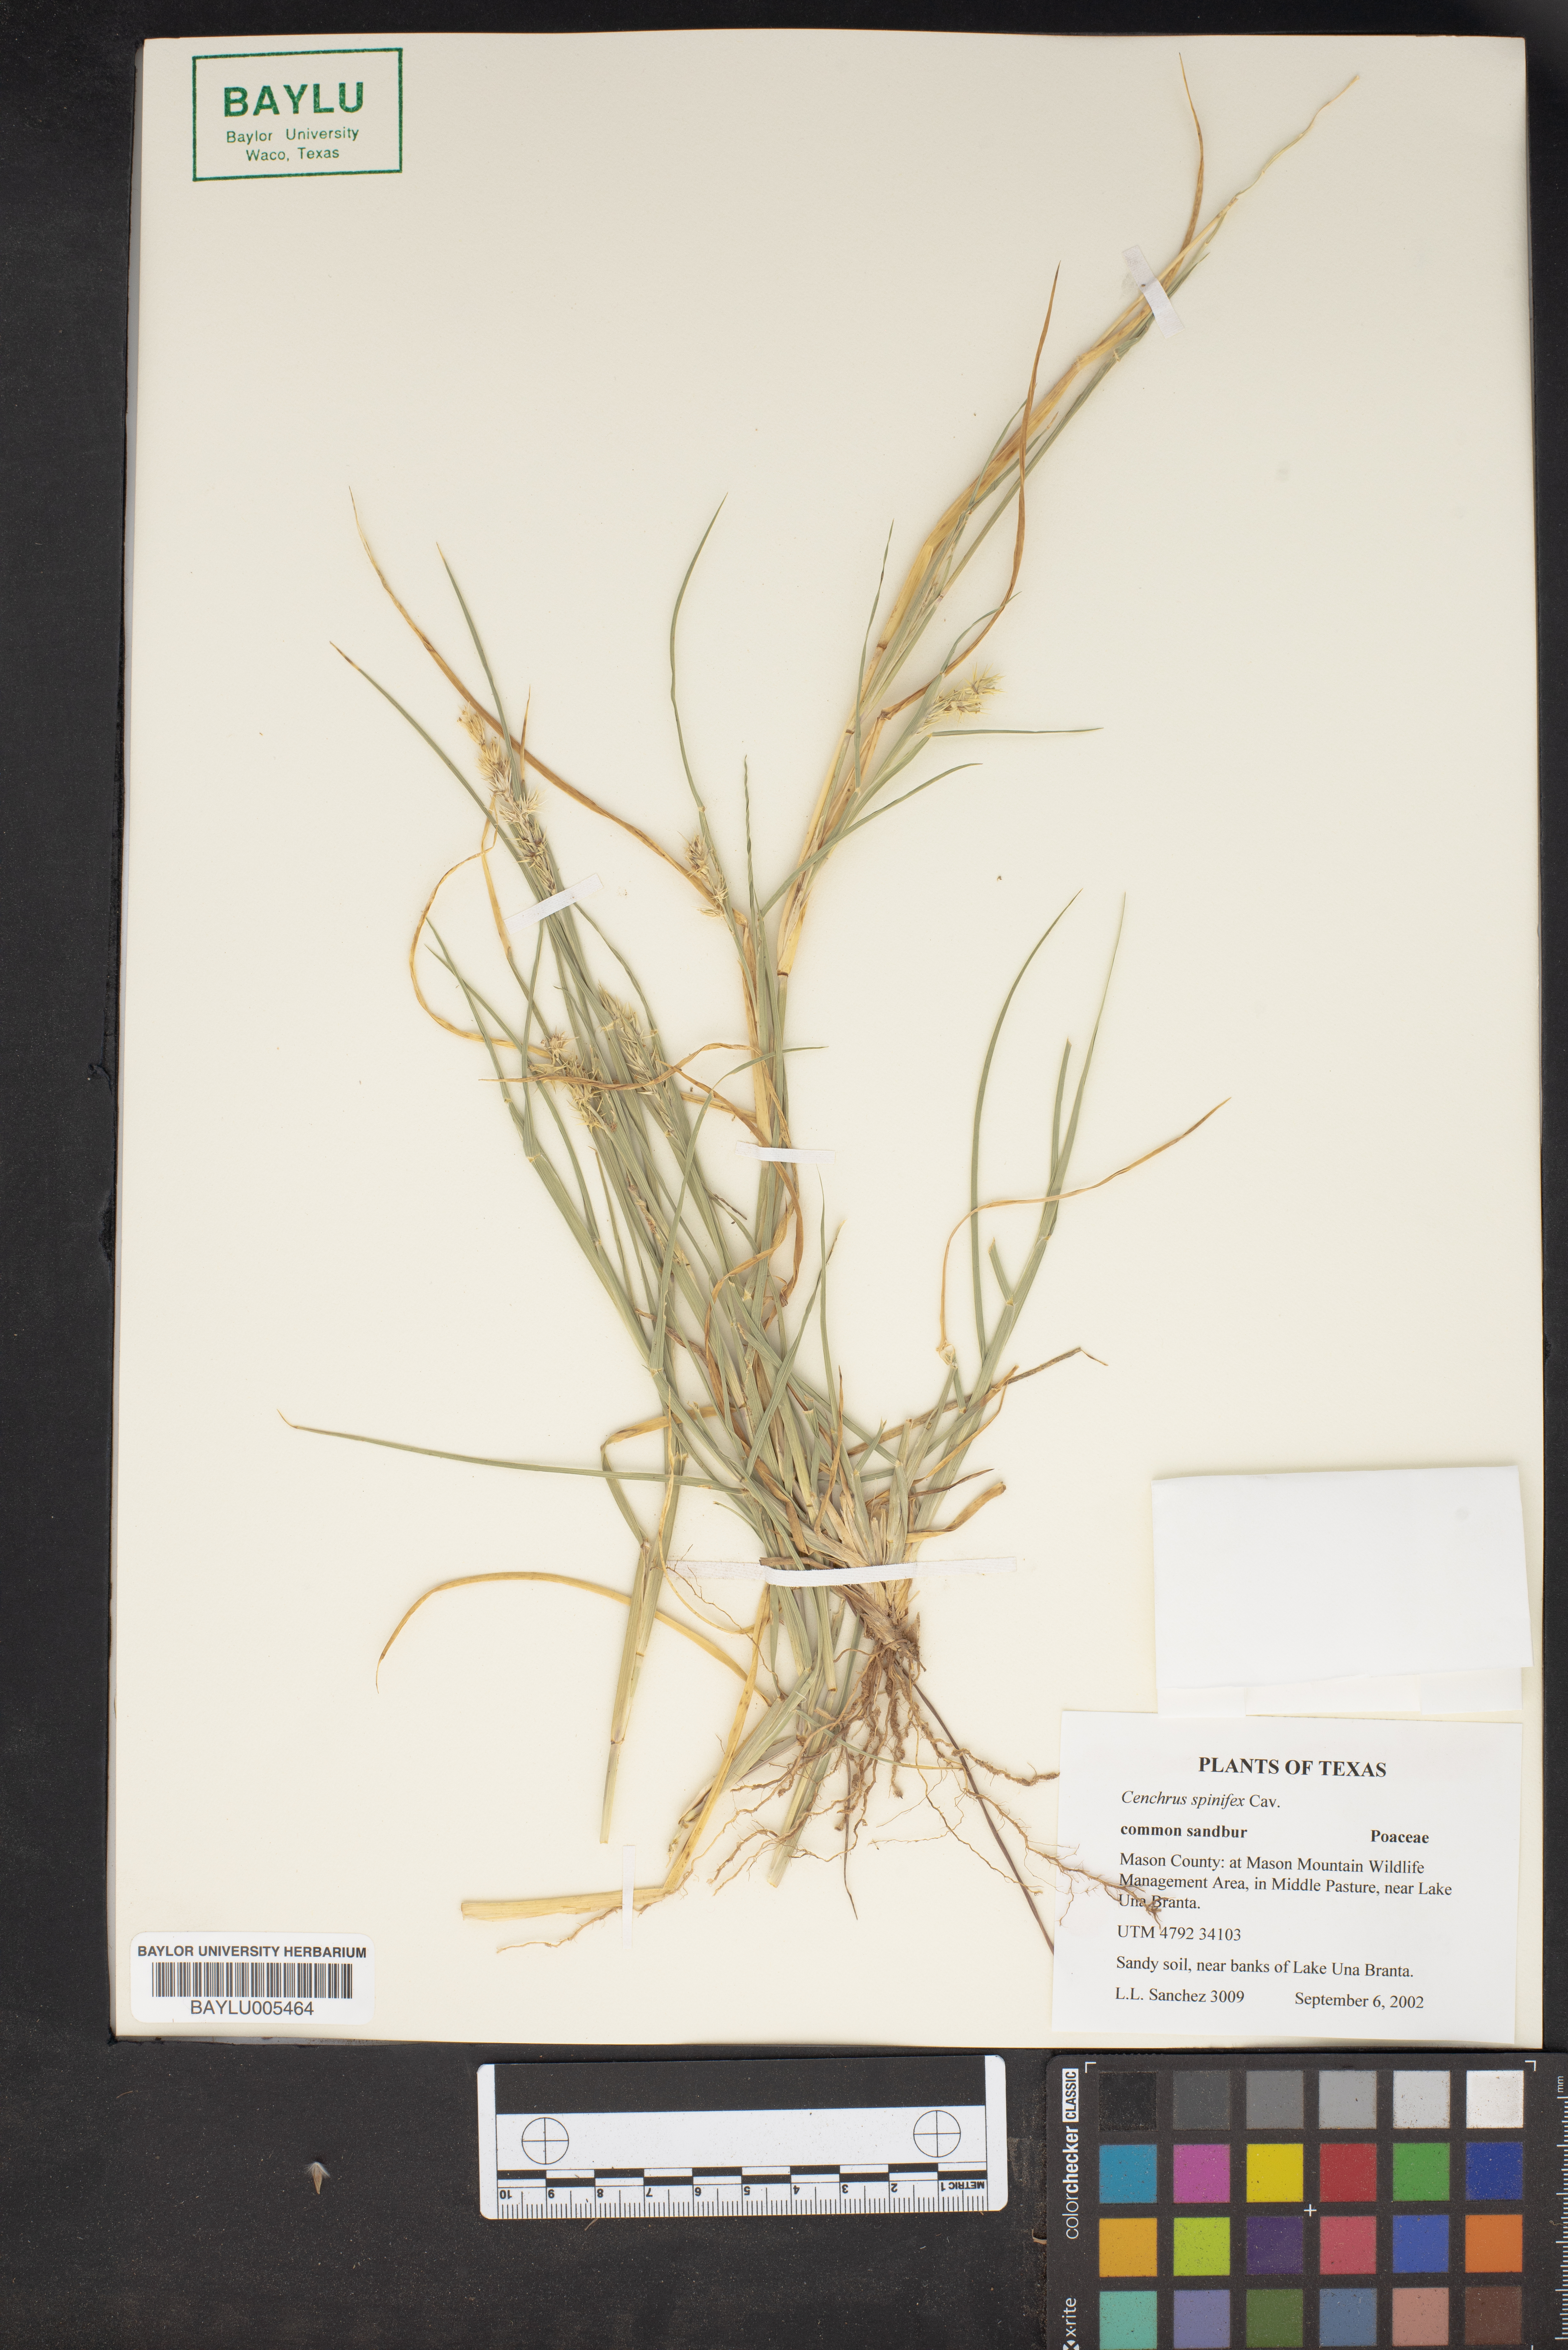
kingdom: Plantae
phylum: Tracheophyta
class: Liliopsida
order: Poales
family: Poaceae
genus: Cenchrus
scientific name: Cenchrus spinifex
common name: Coast sandbur
